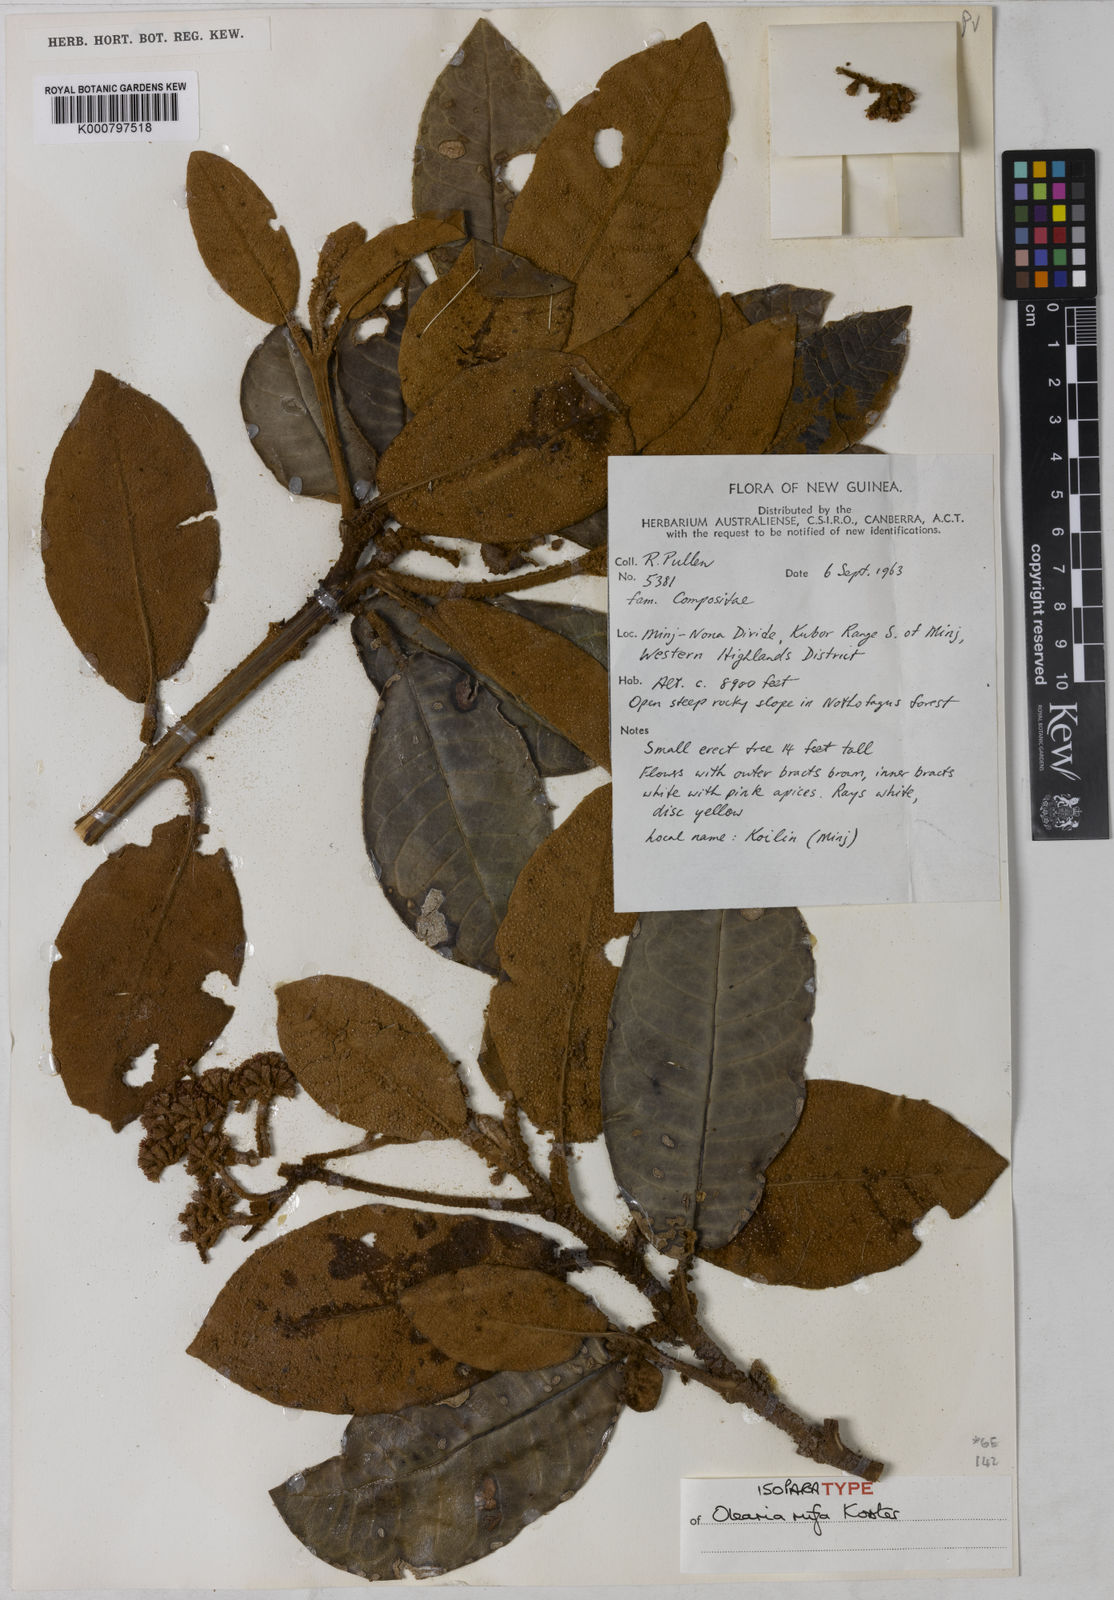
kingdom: Plantae
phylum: Tracheophyta
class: Magnoliopsida
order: Asterales
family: Asteraceae
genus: Olearia
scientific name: Olearia rufa
